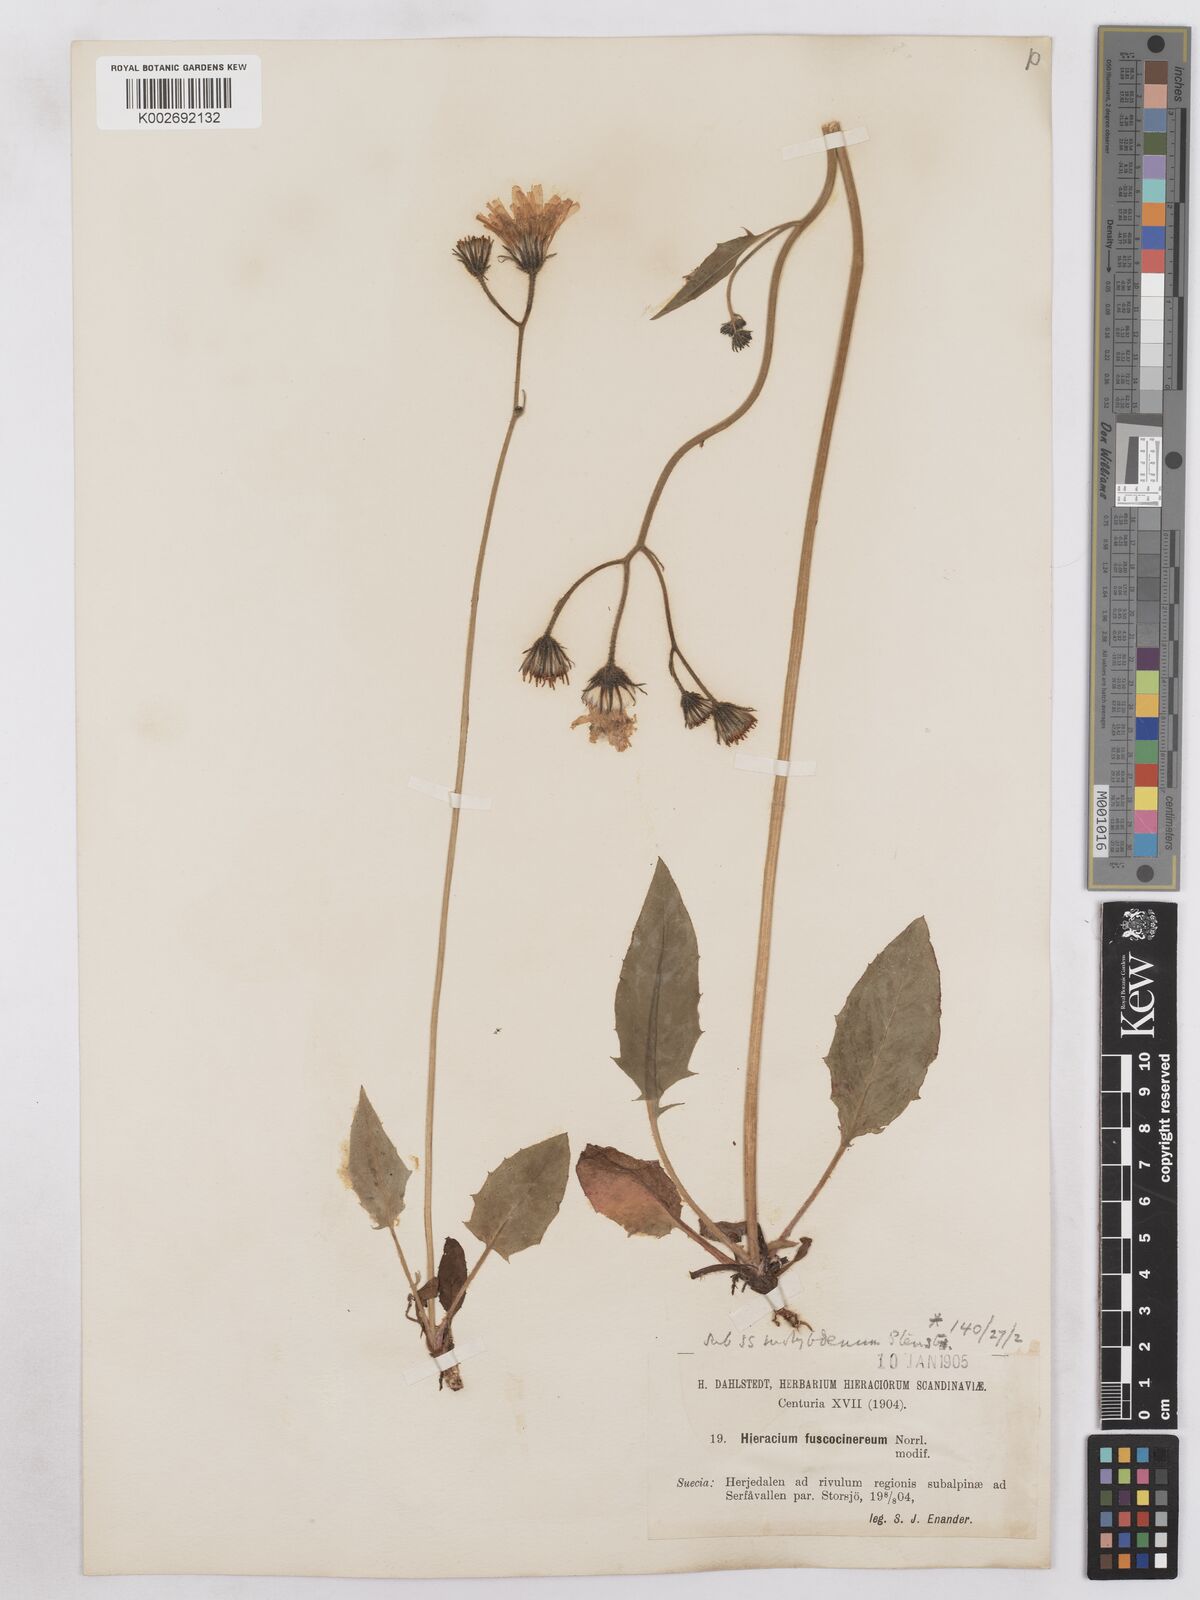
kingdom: Plantae
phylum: Tracheophyta
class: Magnoliopsida
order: Asterales
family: Asteraceae
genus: Hieracium
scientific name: Hieracium fuscocinereum
